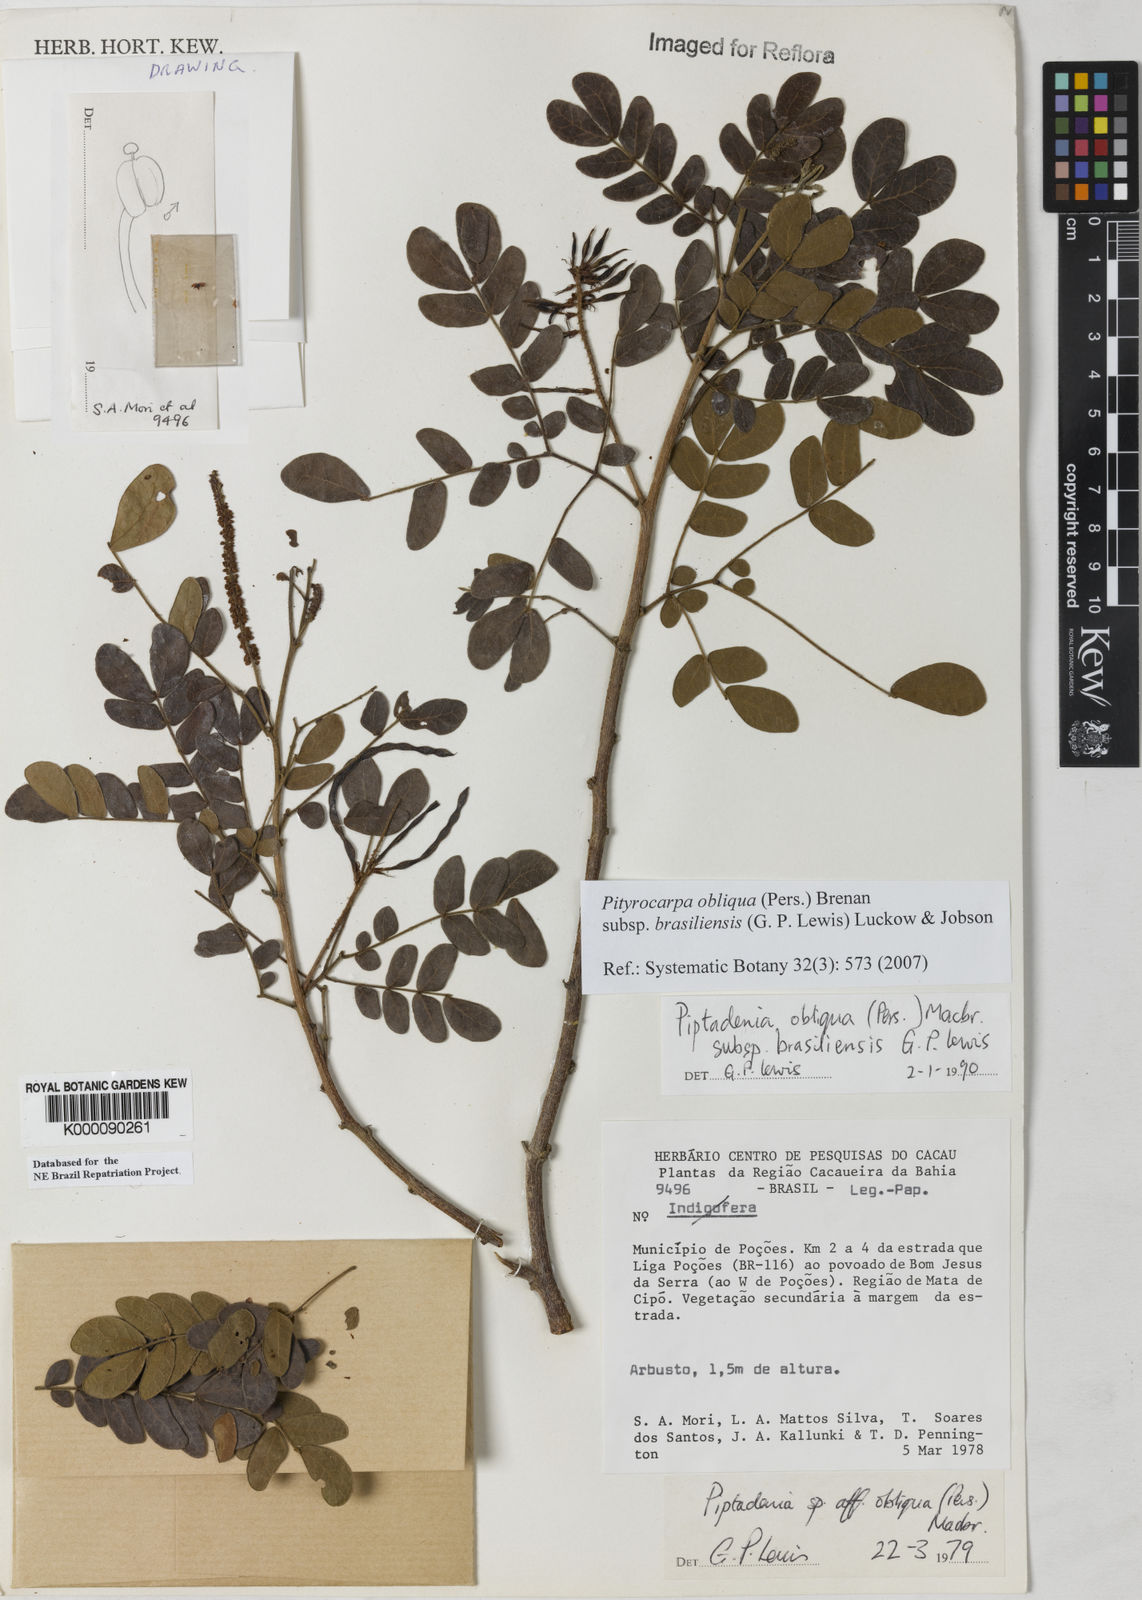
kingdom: Plantae
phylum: Tracheophyta
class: Magnoliopsida
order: Fabales
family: Fabaceae
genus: Pityrocarpa
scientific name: Pityrocarpa obliqua
